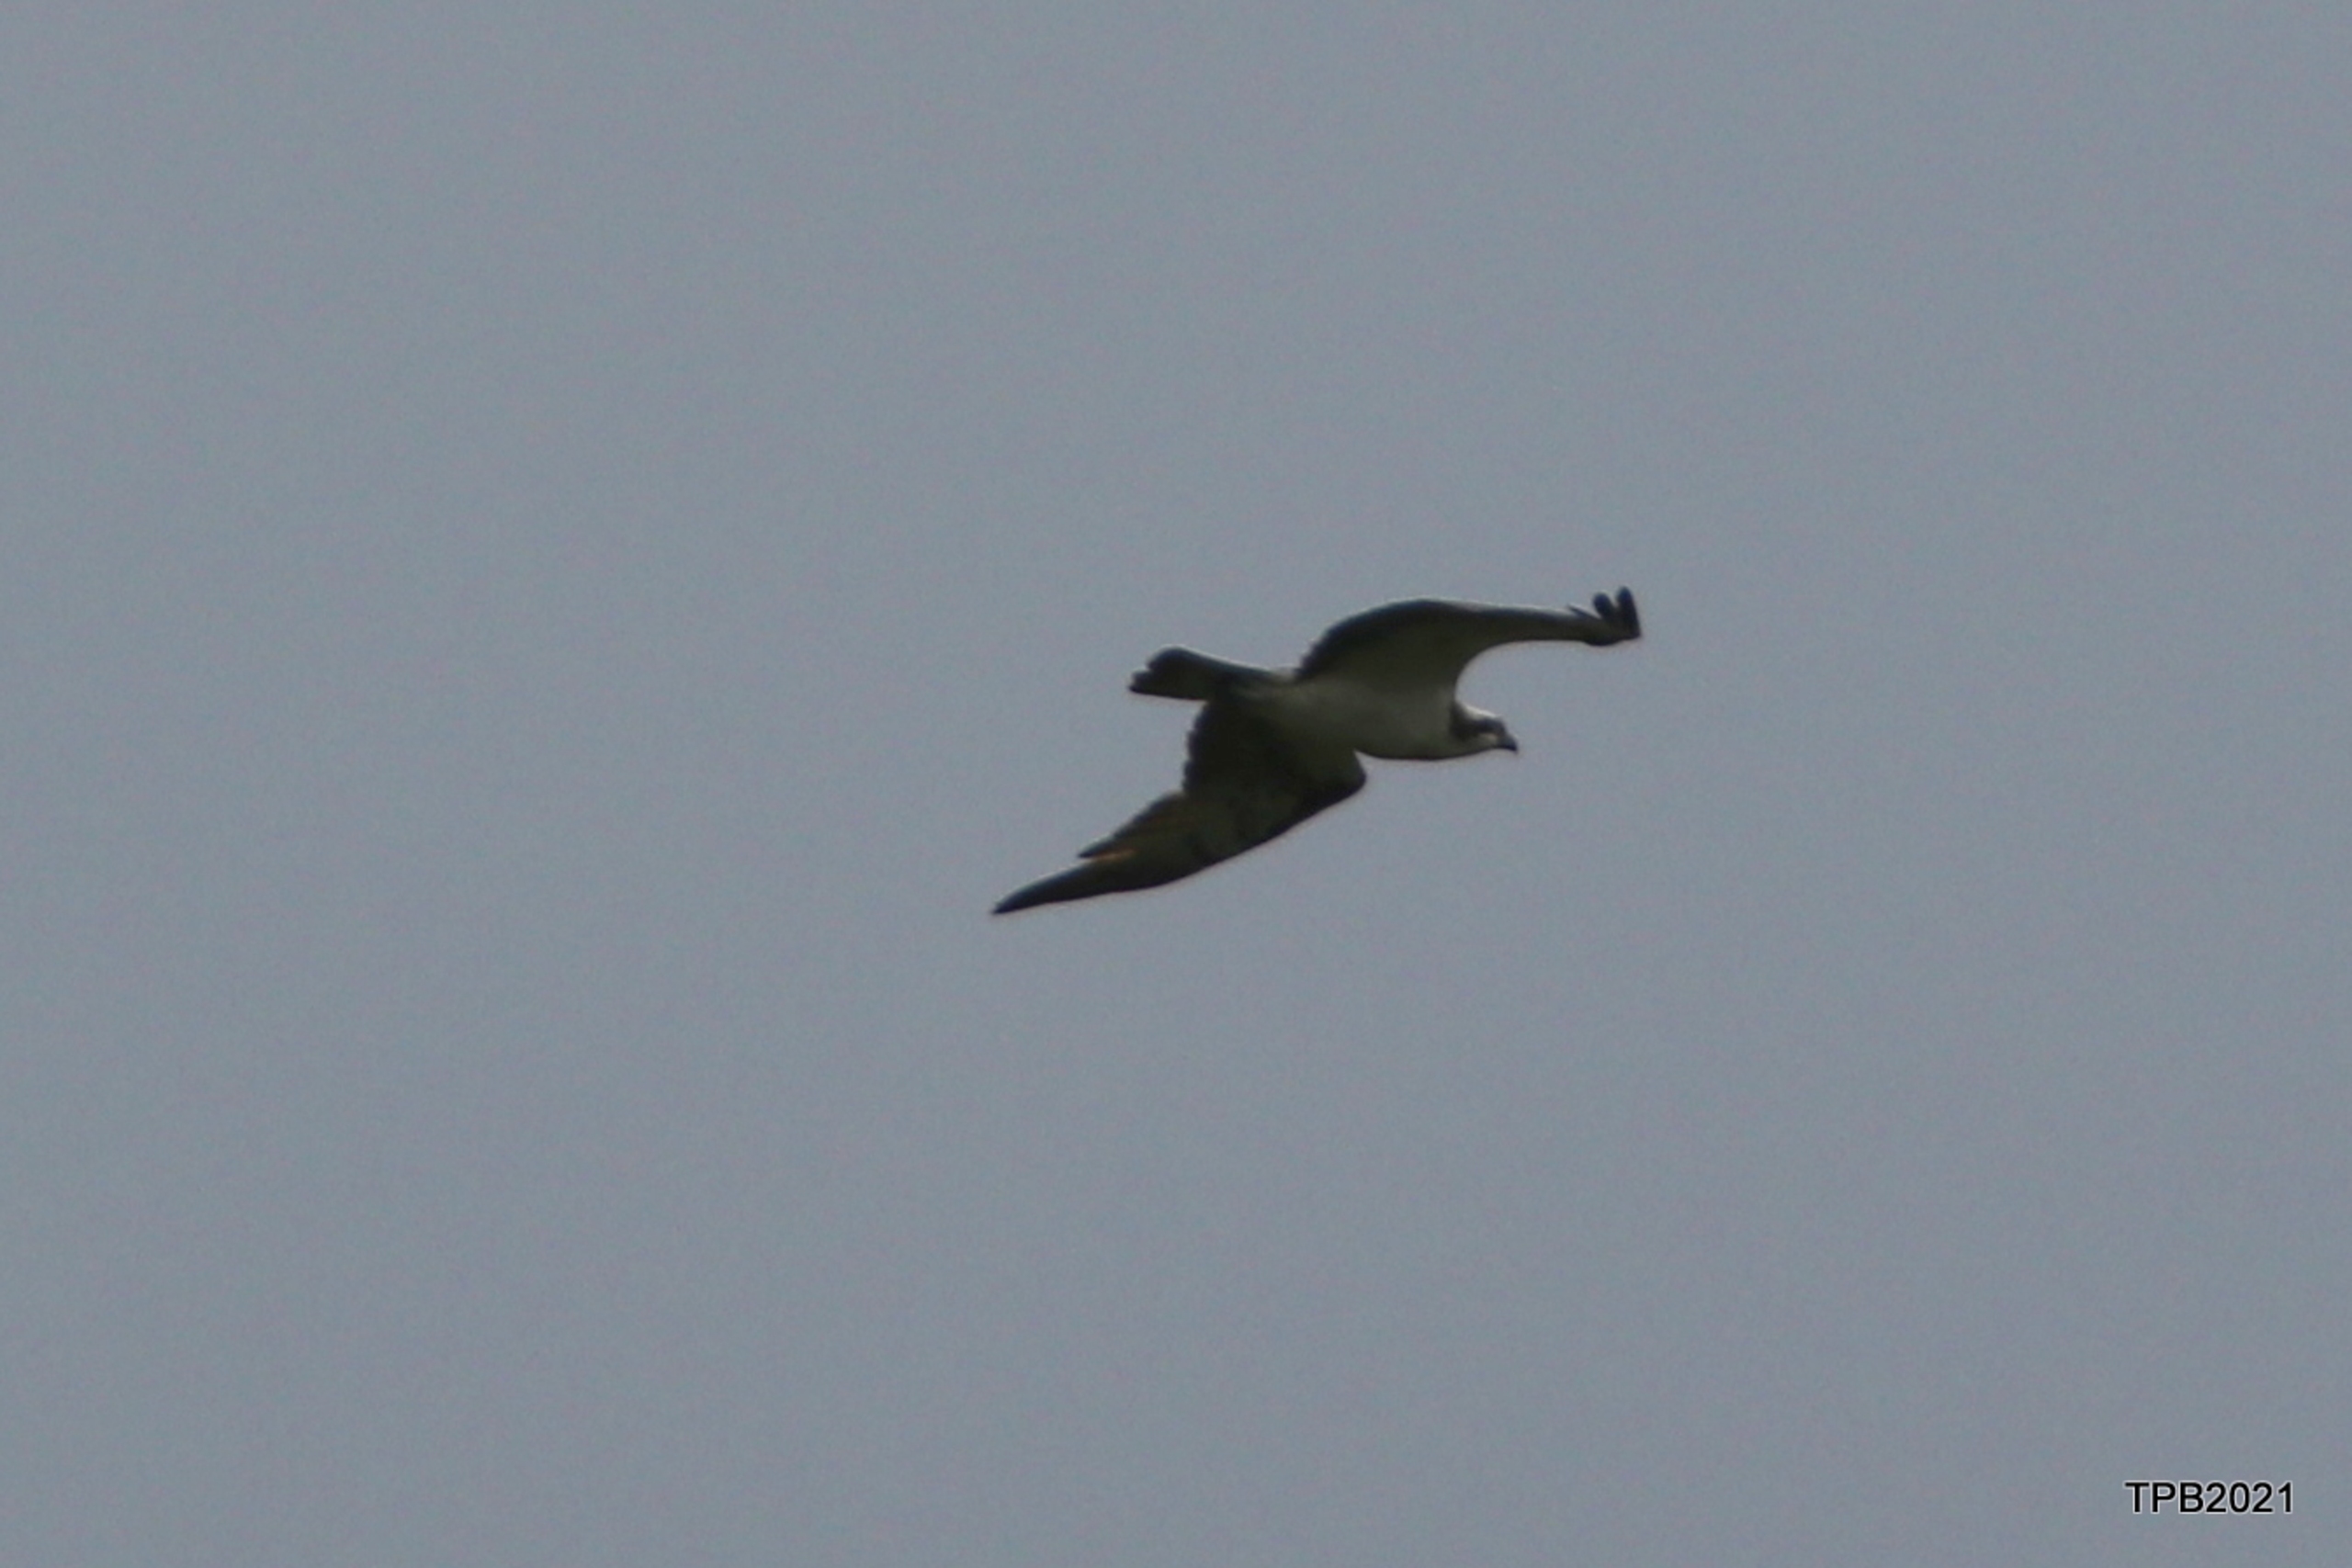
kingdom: Animalia
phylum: Chordata
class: Aves
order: Accipitriformes
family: Pandionidae
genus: Pandion
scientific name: Pandion haliaetus
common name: Fiskeørn
